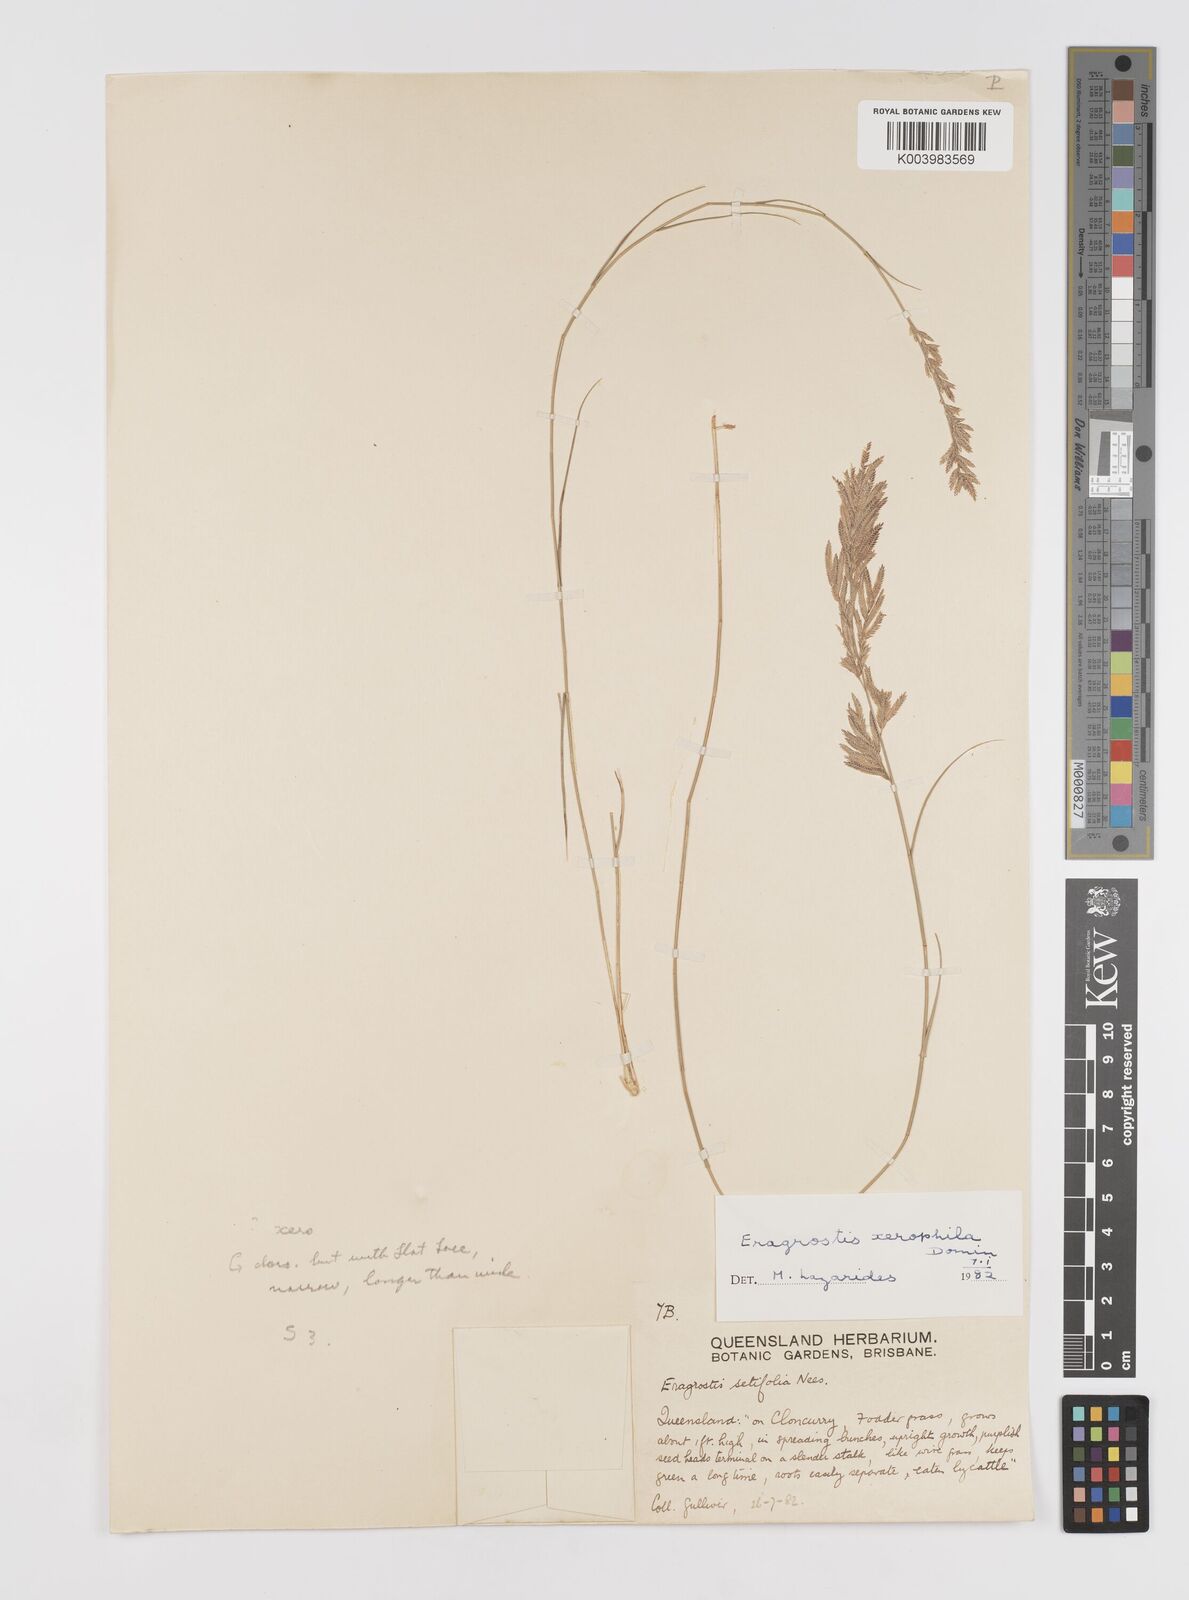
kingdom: Plantae
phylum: Tracheophyta
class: Liliopsida
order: Poales
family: Poaceae
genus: Eragrostis
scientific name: Eragrostis xerophila
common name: Wire wandarrie grass
